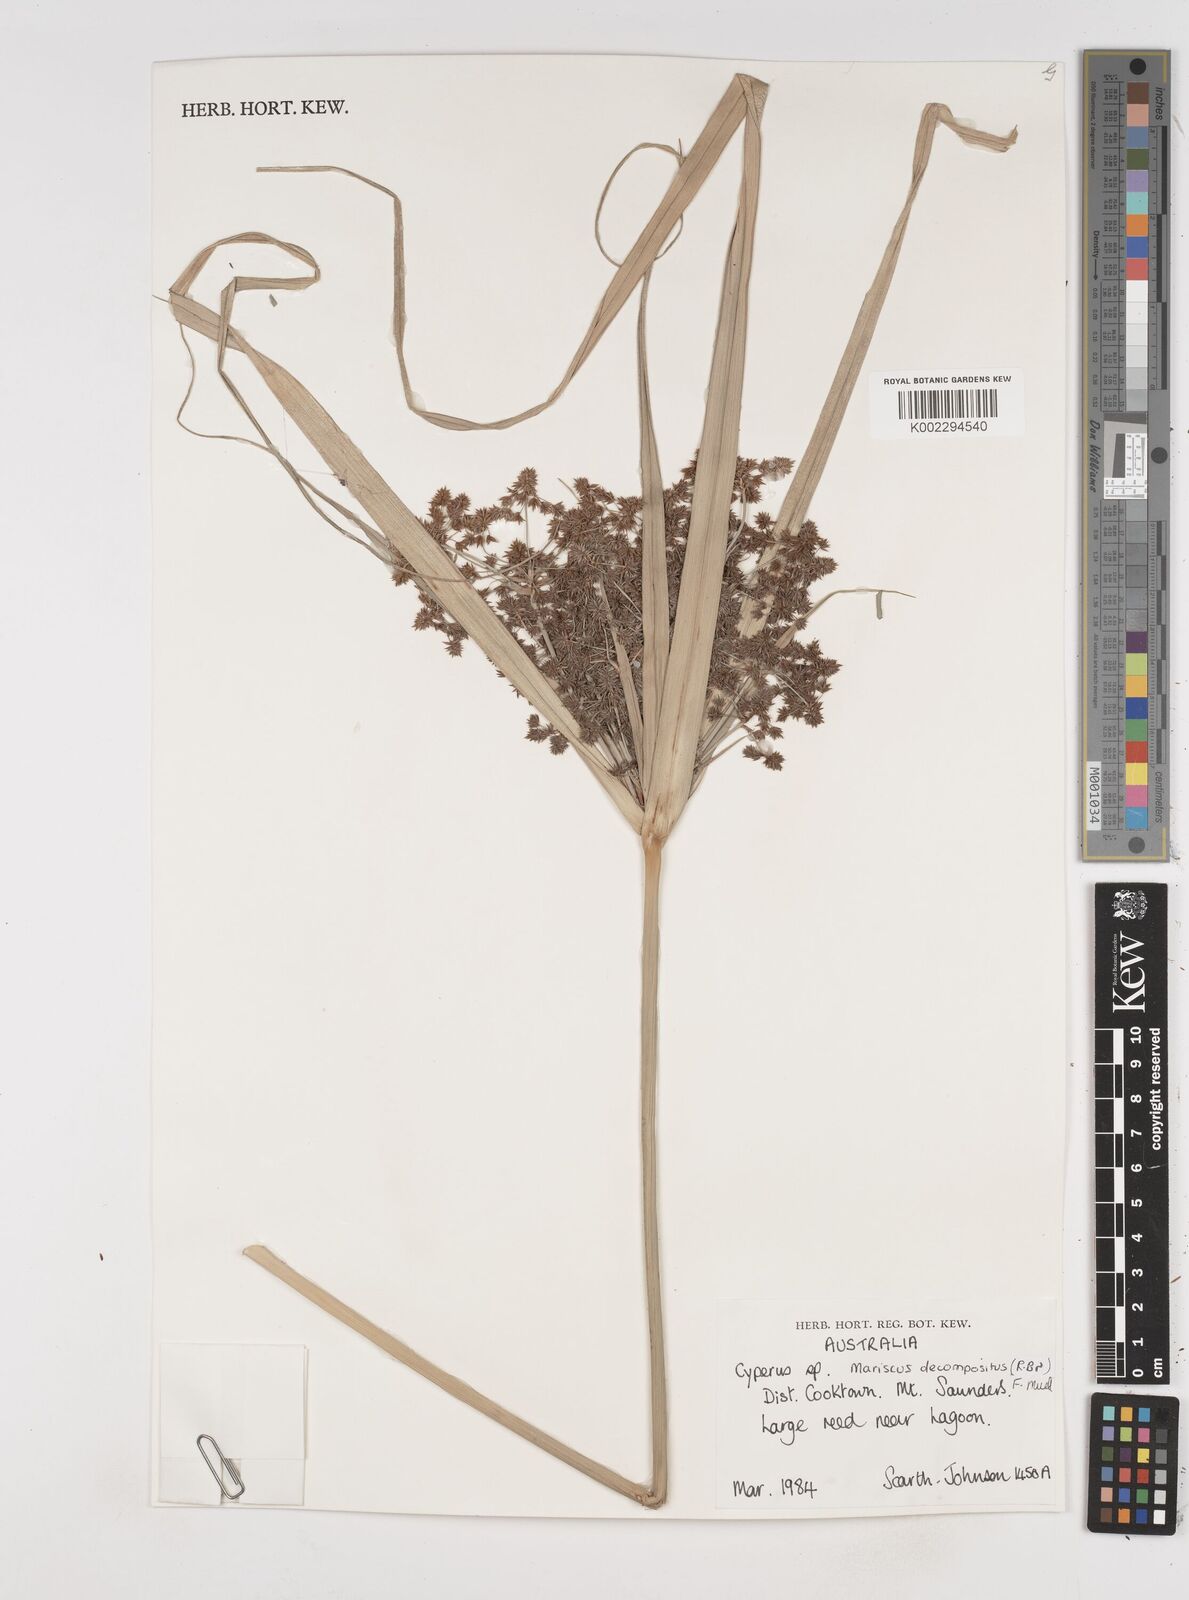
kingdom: Plantae
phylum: Tracheophyta
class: Liliopsida
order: Poales
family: Cyperaceae
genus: Cyperus
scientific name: Cyperus decompositus
